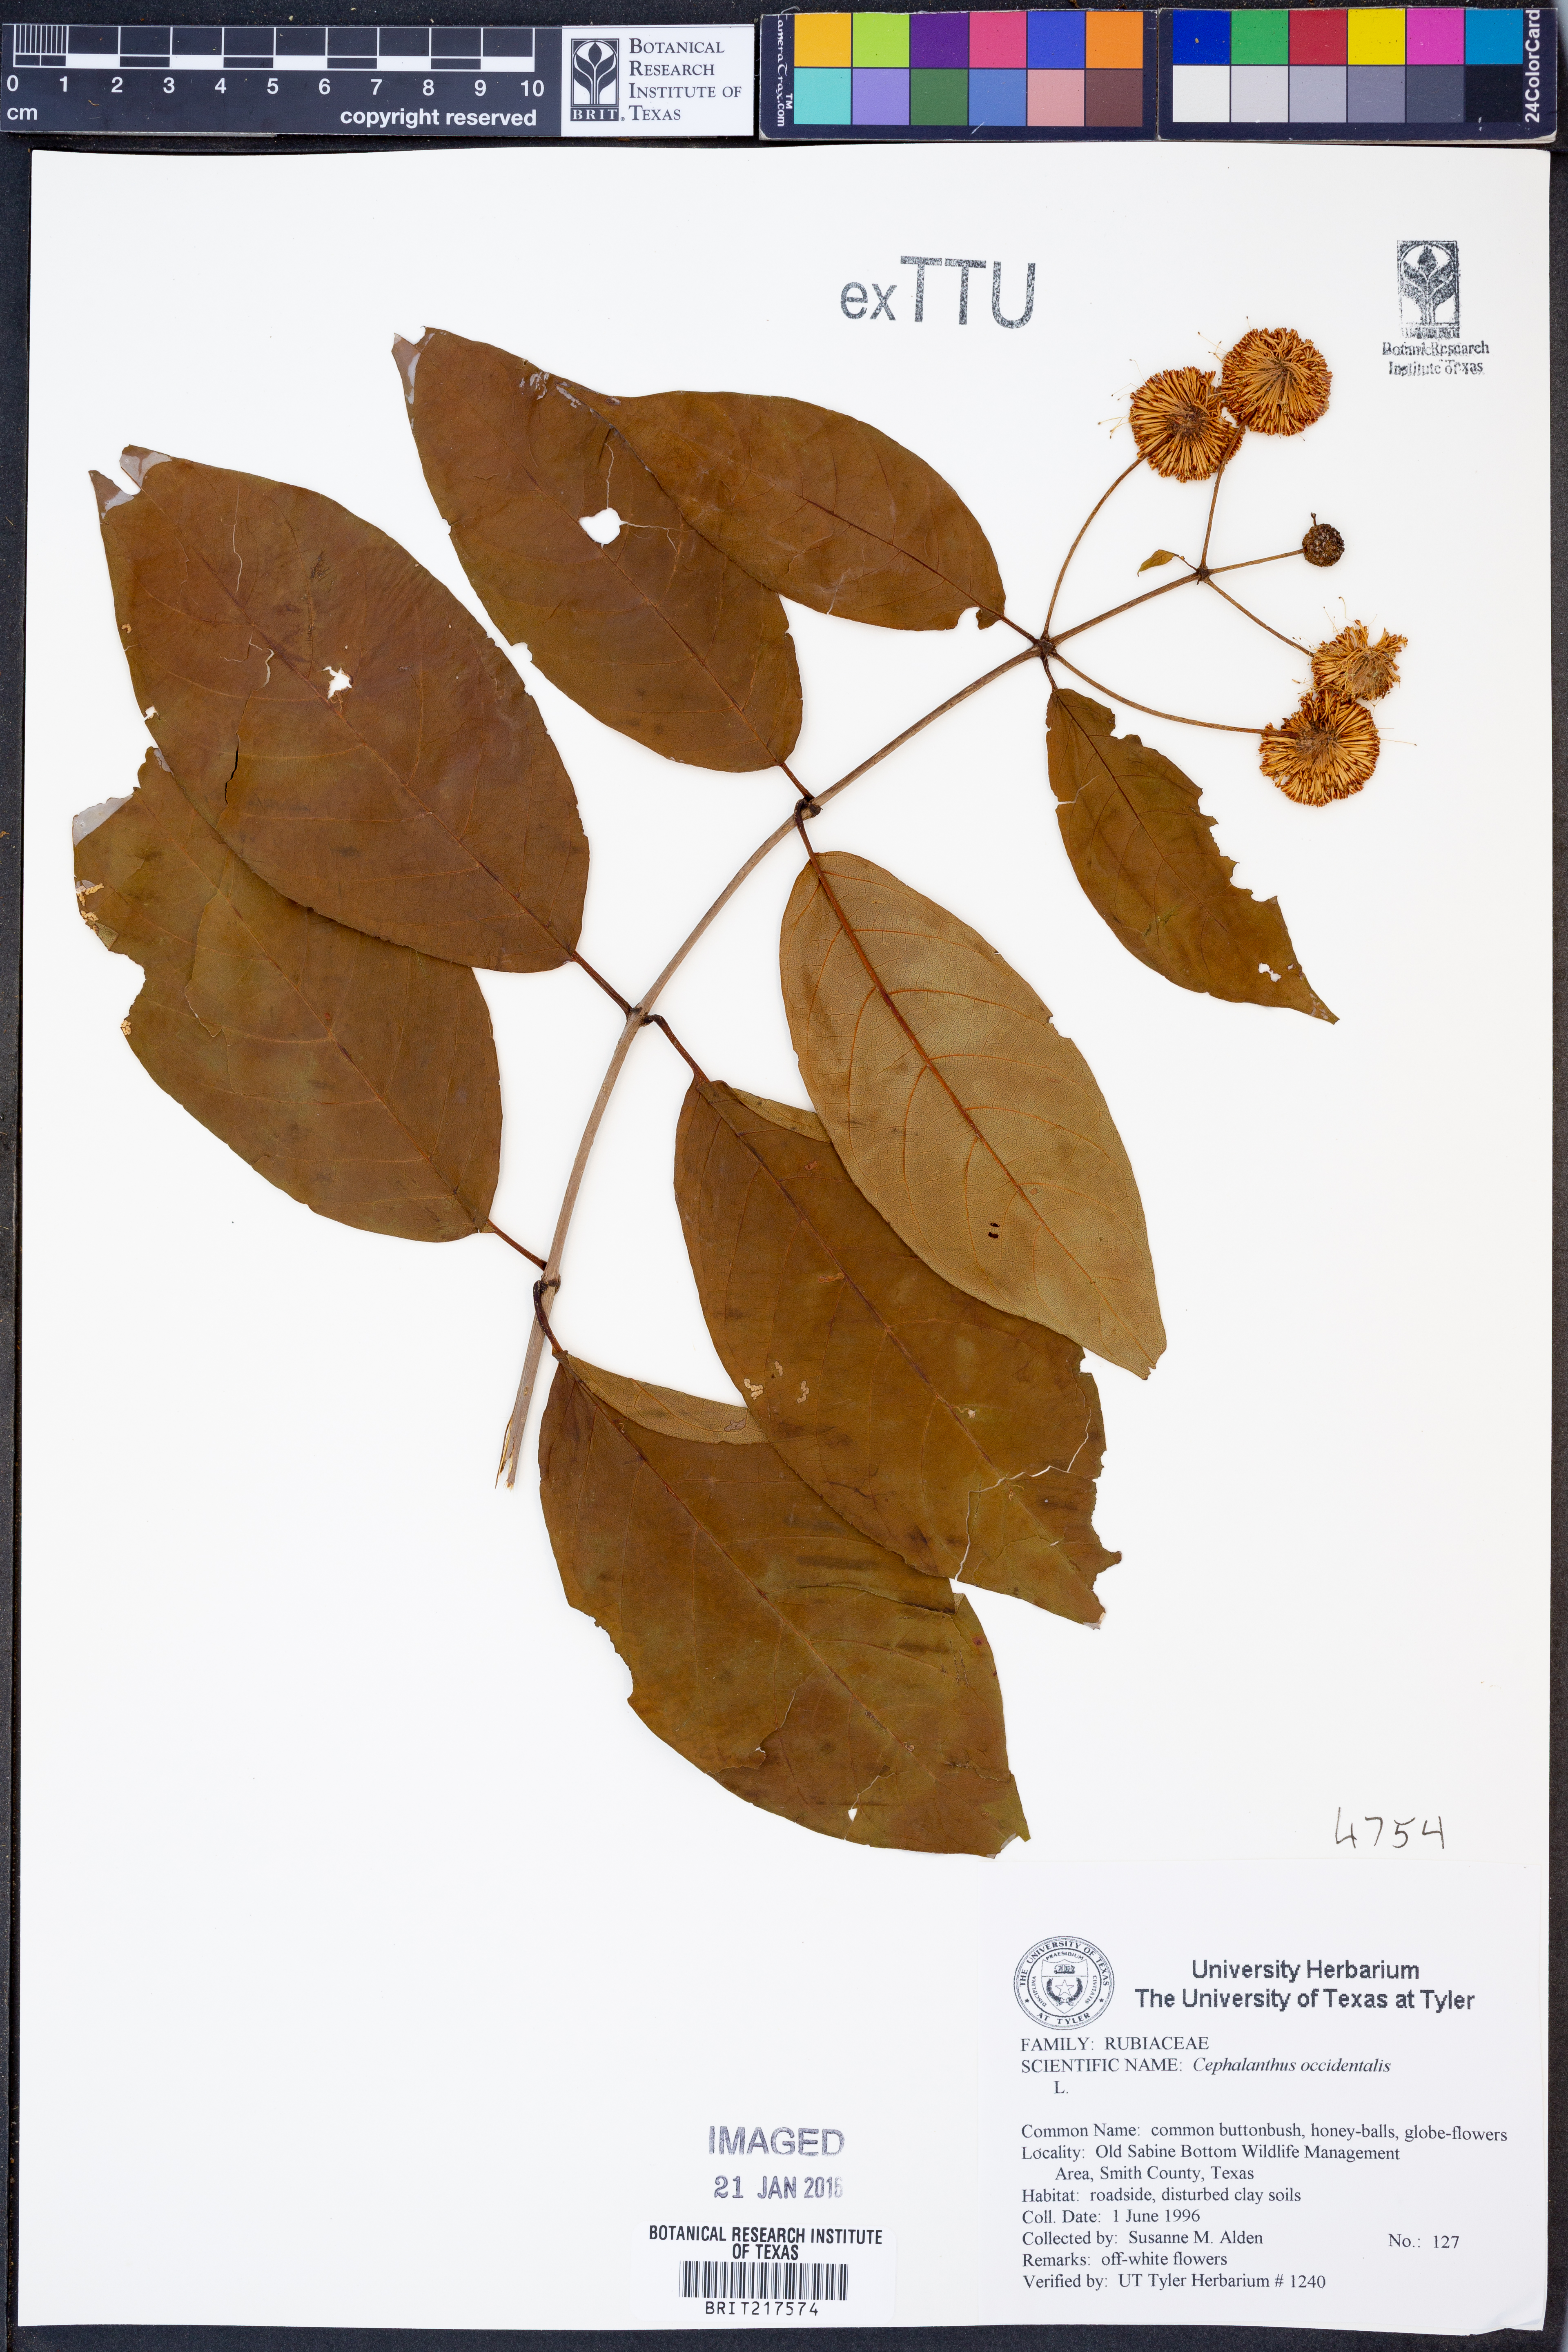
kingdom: Plantae
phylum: Tracheophyta
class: Magnoliopsida
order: Gentianales
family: Rubiaceae
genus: Cephalanthus
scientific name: Cephalanthus occidentalis
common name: Button-willow
